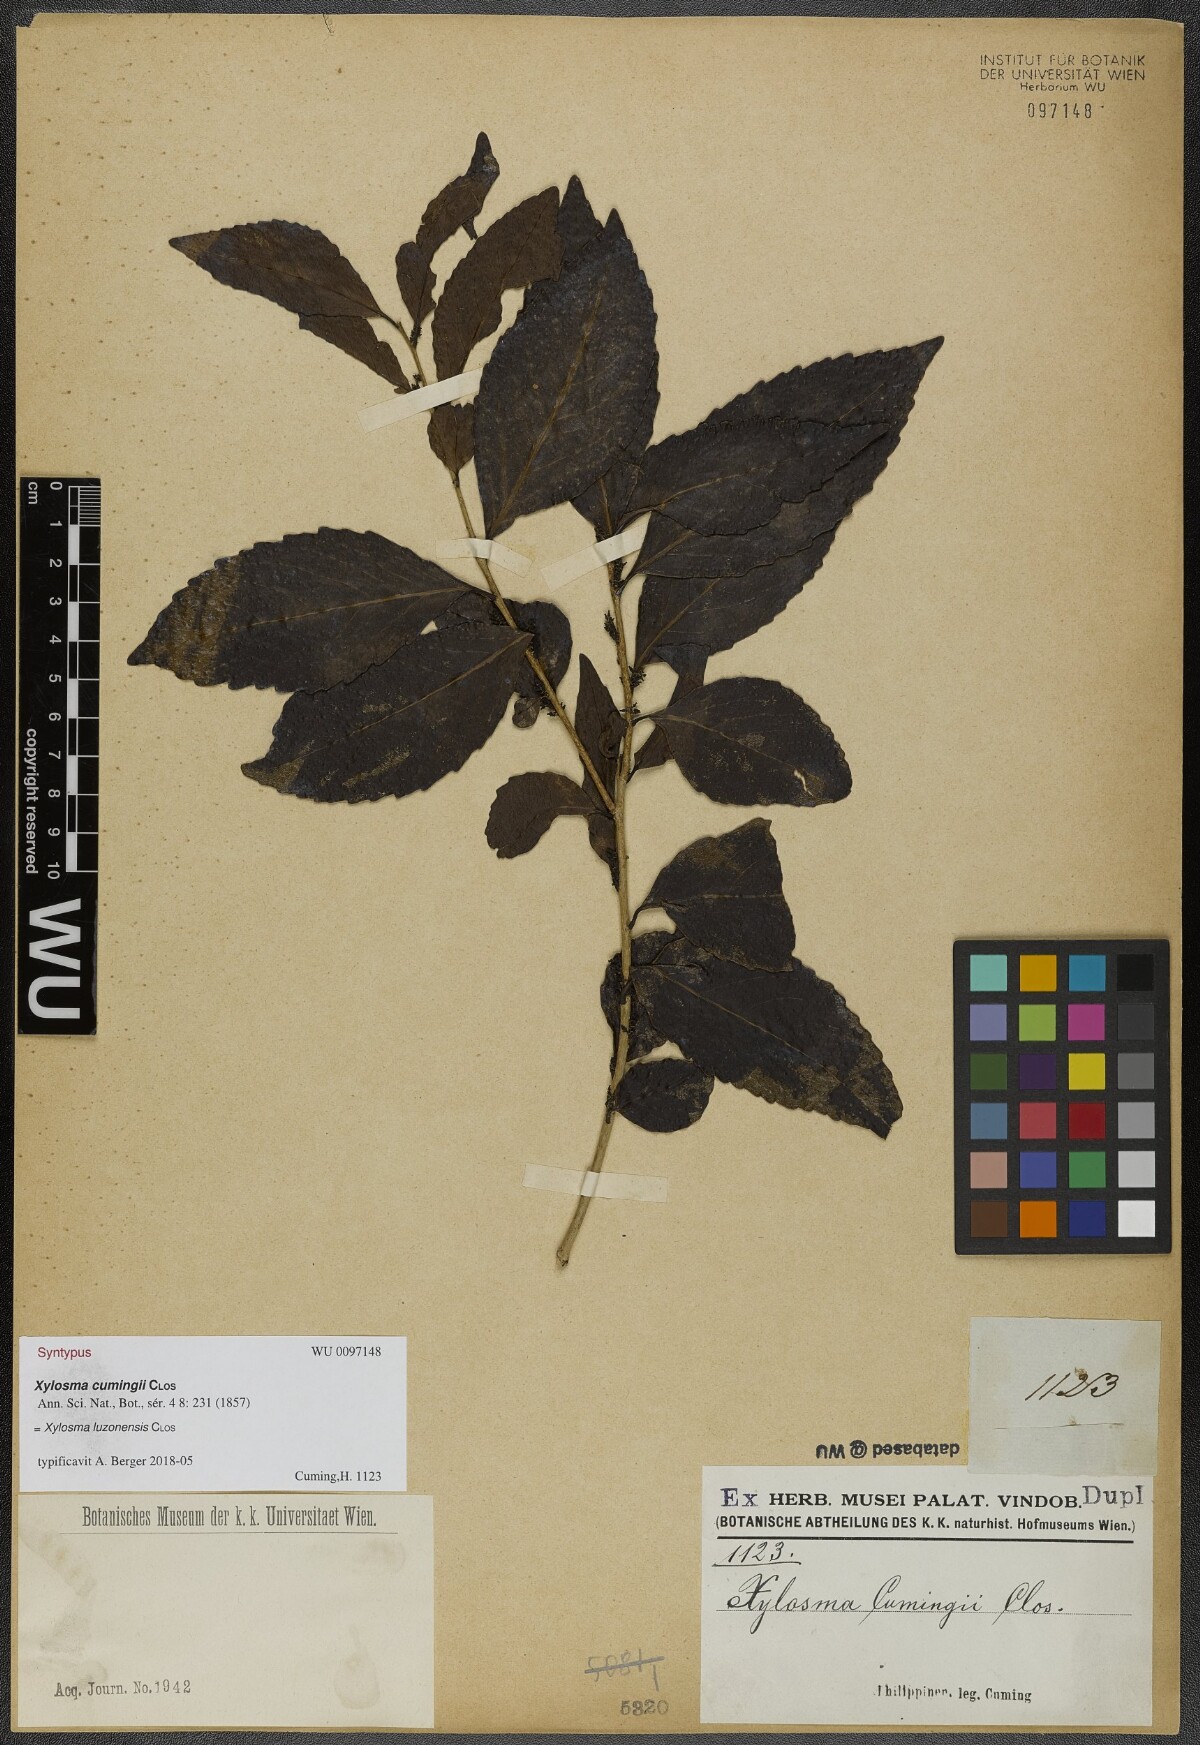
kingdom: Plantae
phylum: Tracheophyta
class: Magnoliopsida
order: Malpighiales
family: Salicaceae
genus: Xylosma
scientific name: Xylosma luzonensis
